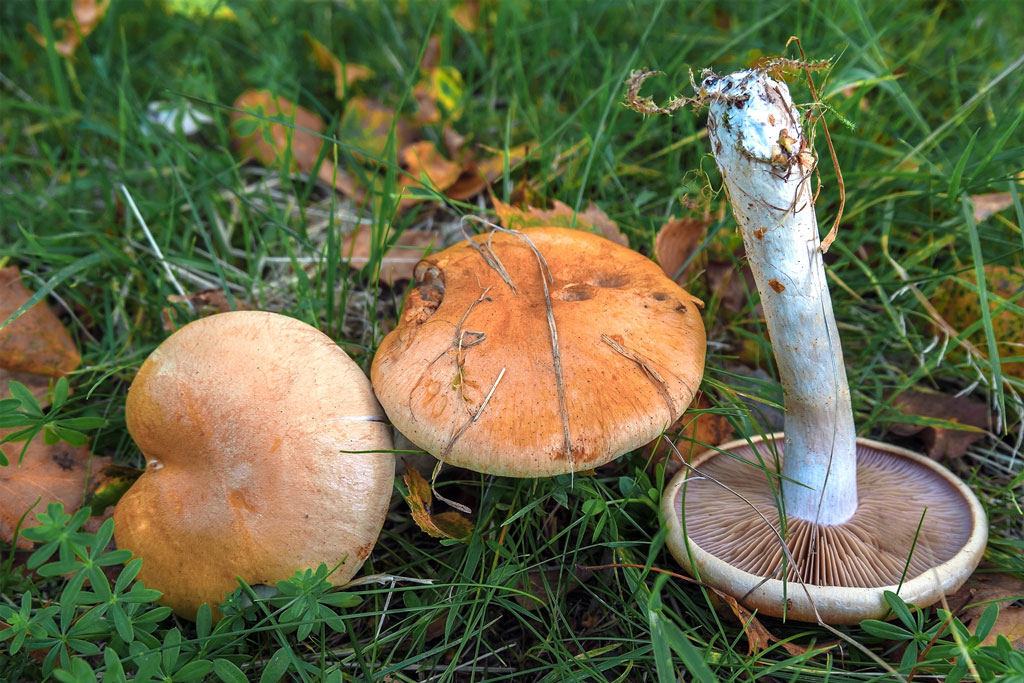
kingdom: Fungi
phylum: Basidiomycota
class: Agaricomycetes
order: Agaricales
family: Cortinariaceae
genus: Cortinarius
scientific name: Cortinarius
